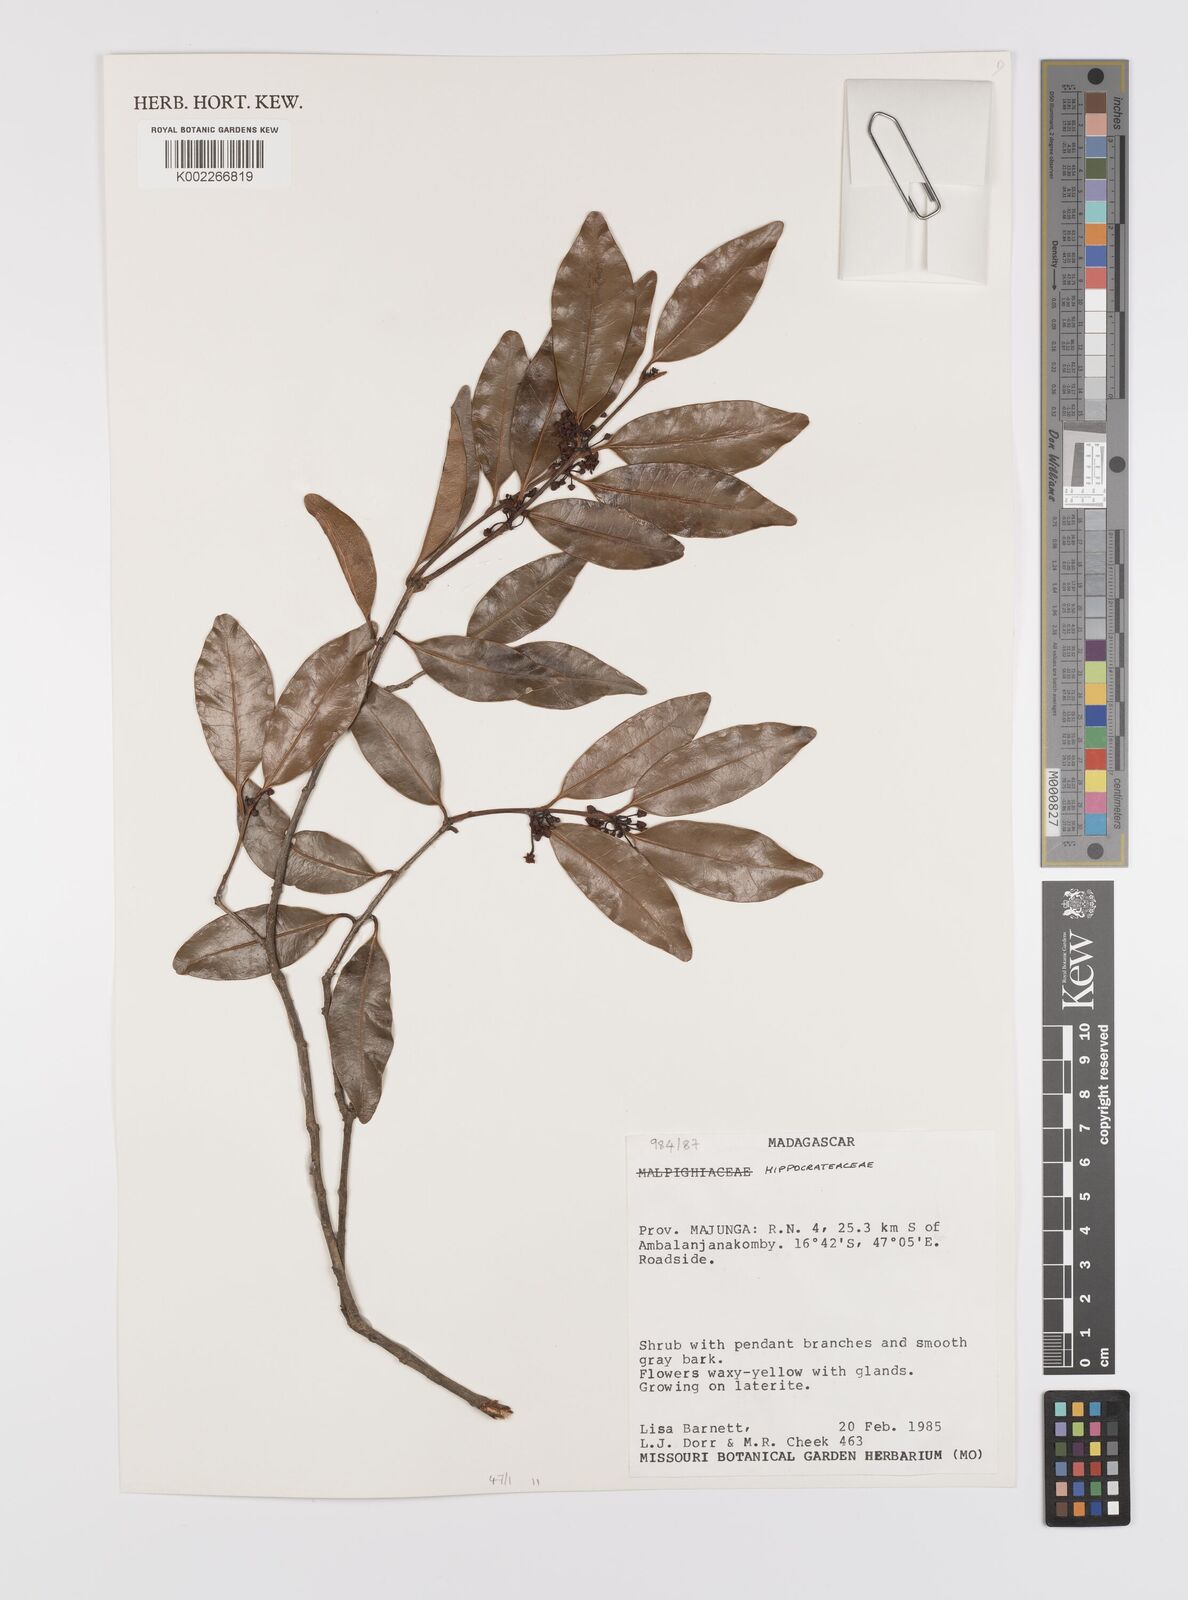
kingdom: Plantae
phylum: Tracheophyta
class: Magnoliopsida
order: Celastrales
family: Celastraceae
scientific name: Celastraceae
